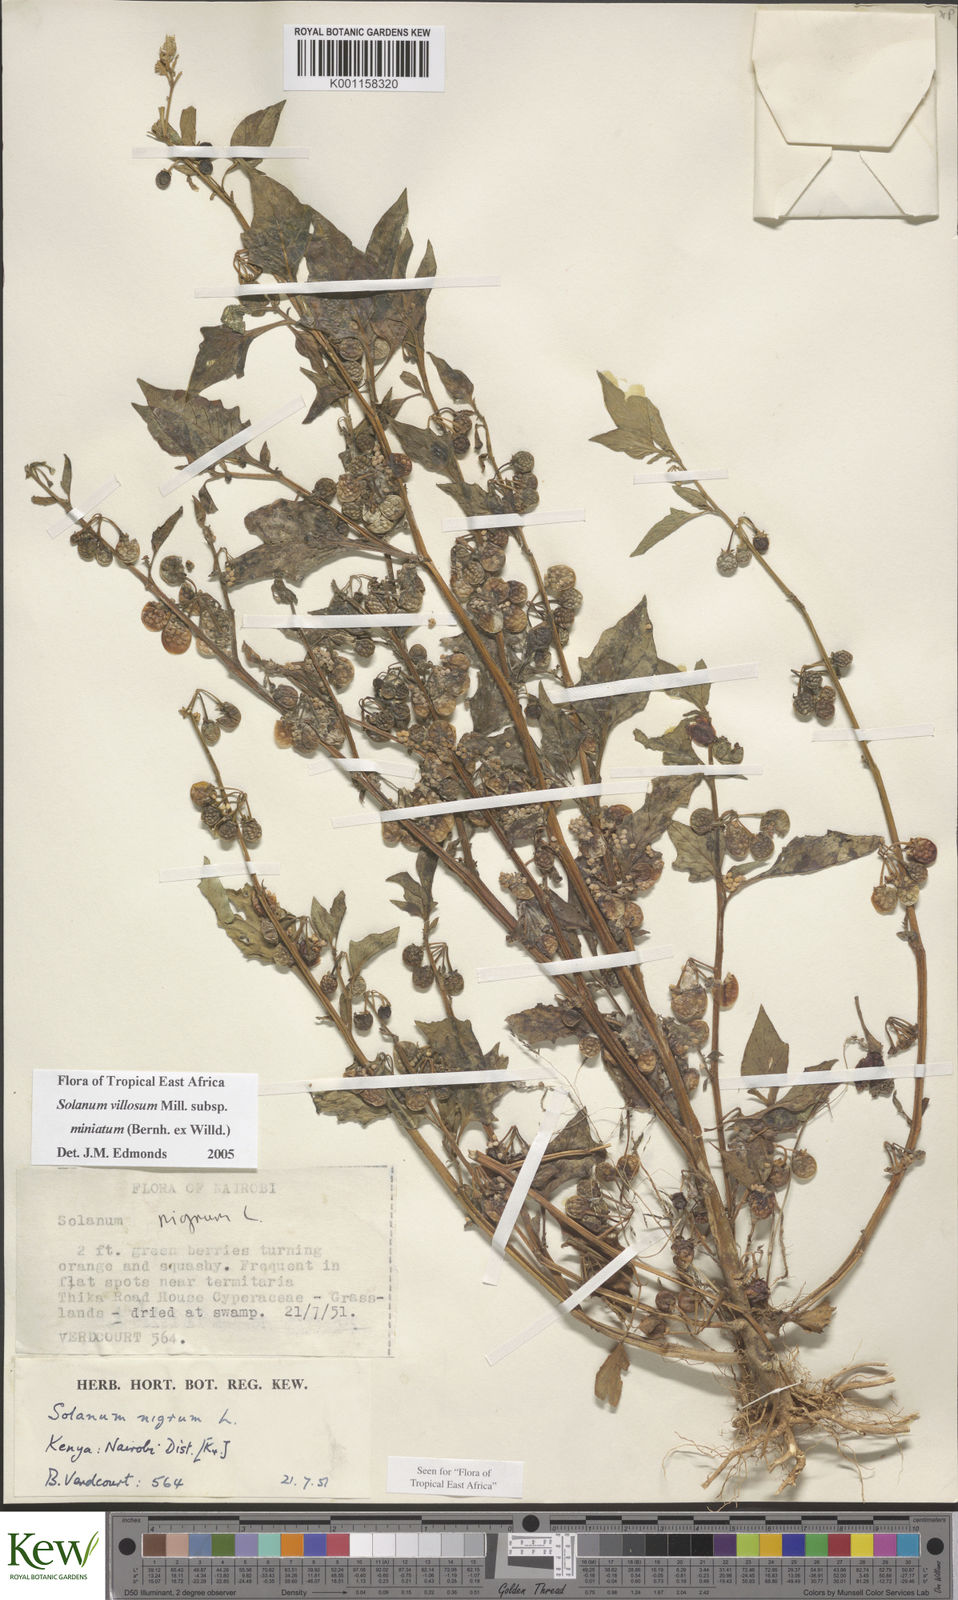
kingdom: Plantae
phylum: Tracheophyta
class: Magnoliopsida
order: Solanales
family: Solanaceae
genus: Solanum
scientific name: Solanum villosum
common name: Red nightshade
